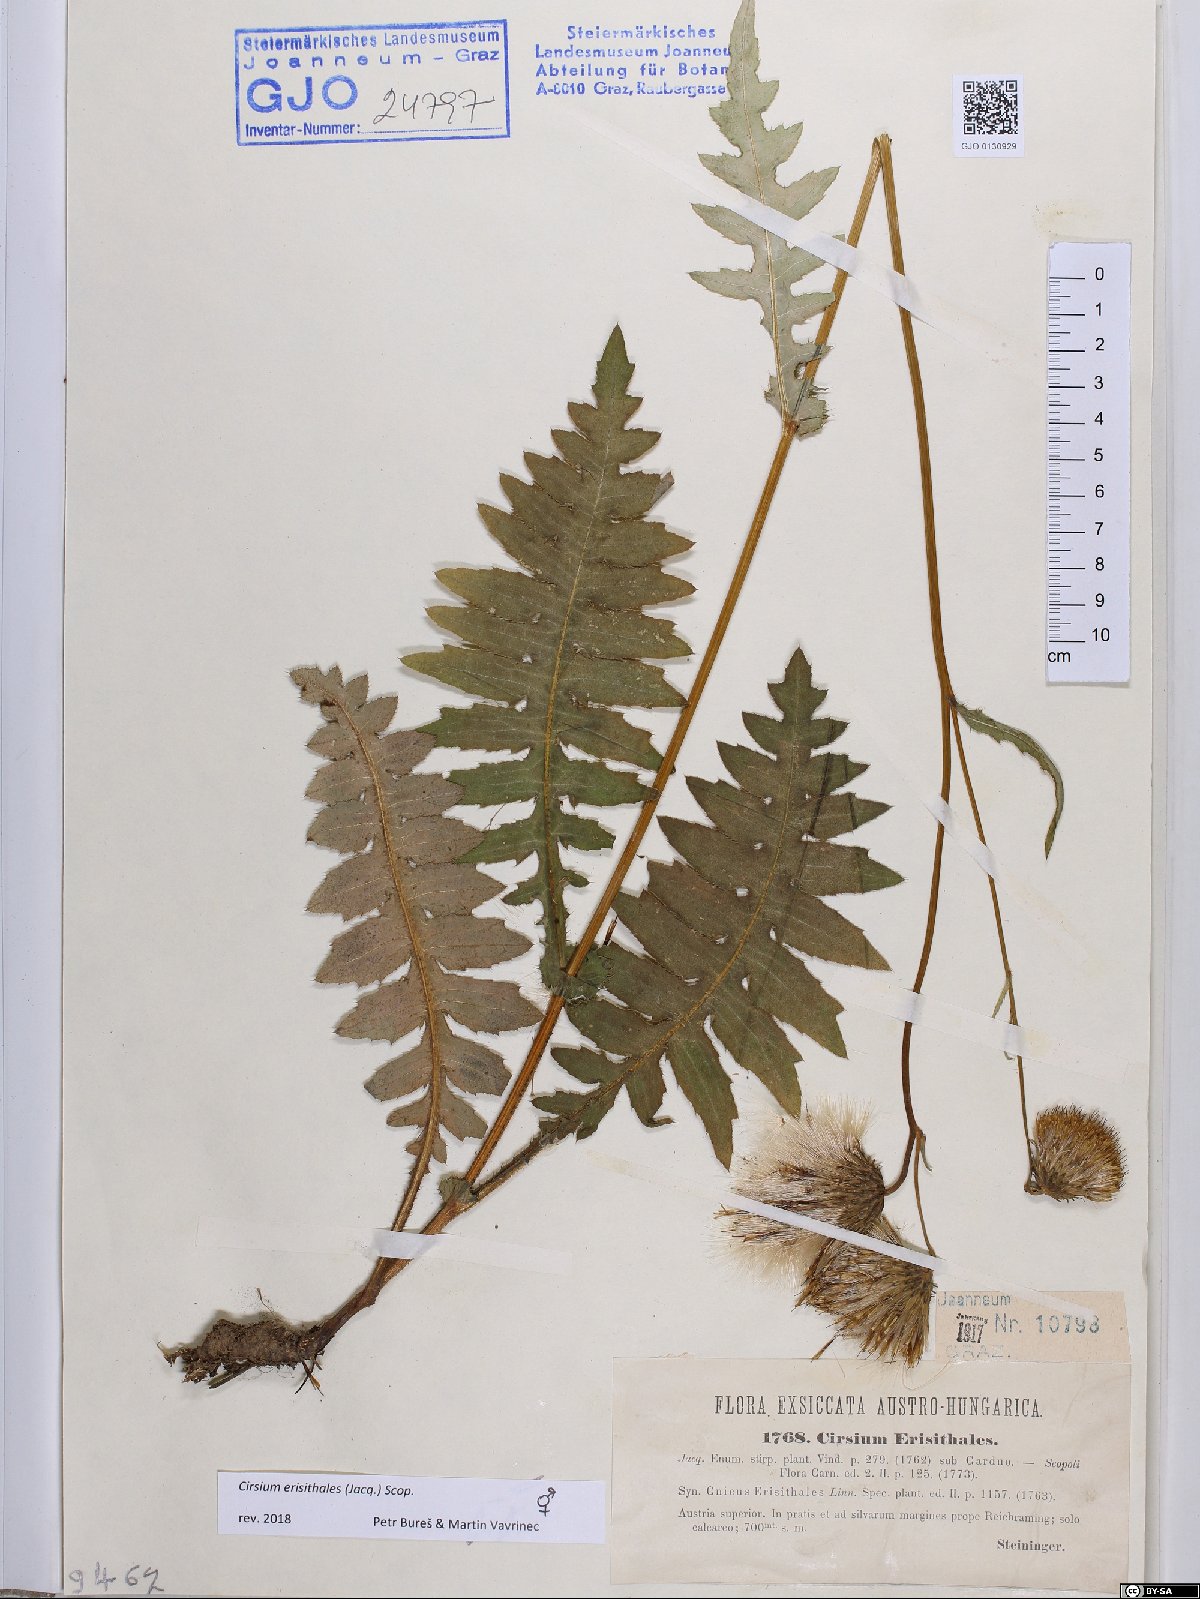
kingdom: Plantae
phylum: Tracheophyta
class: Magnoliopsida
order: Asterales
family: Asteraceae
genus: Cirsium
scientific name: Cirsium erisithales
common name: Yellow thistle
